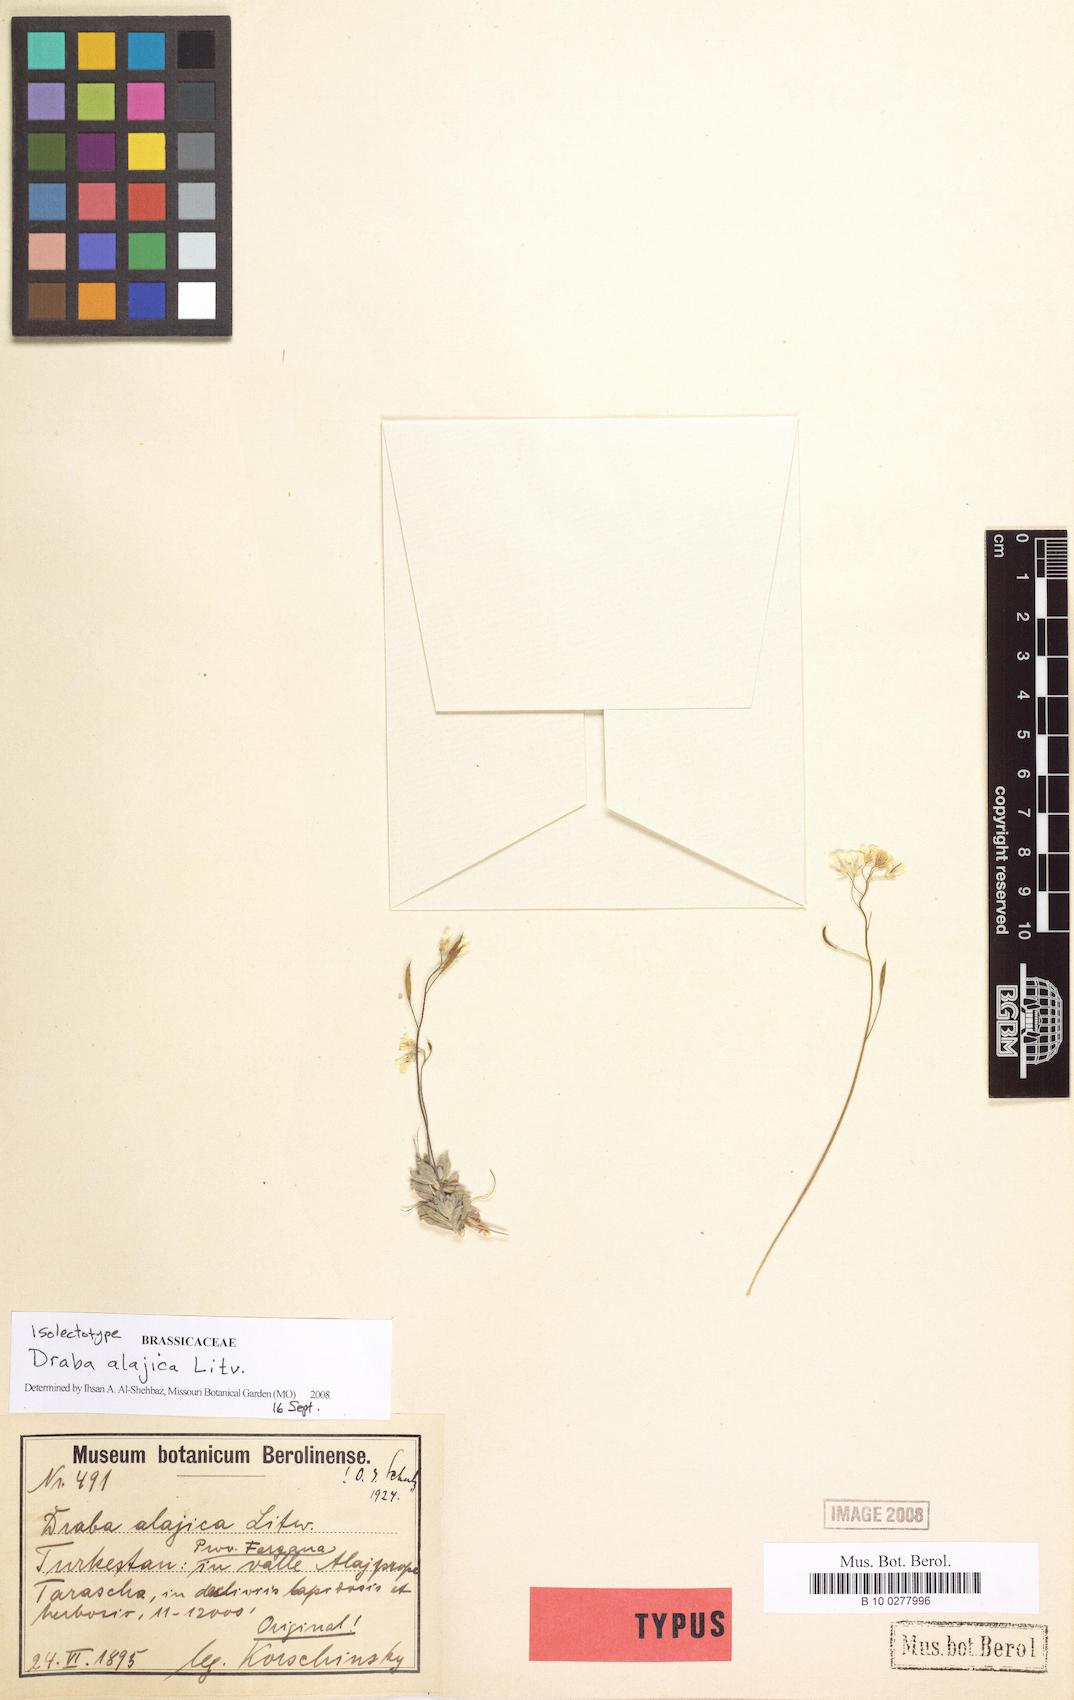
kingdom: Plantae
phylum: Tracheophyta
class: Magnoliopsida
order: Brassicales
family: Brassicaceae
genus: Draba
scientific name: Draba alajica
